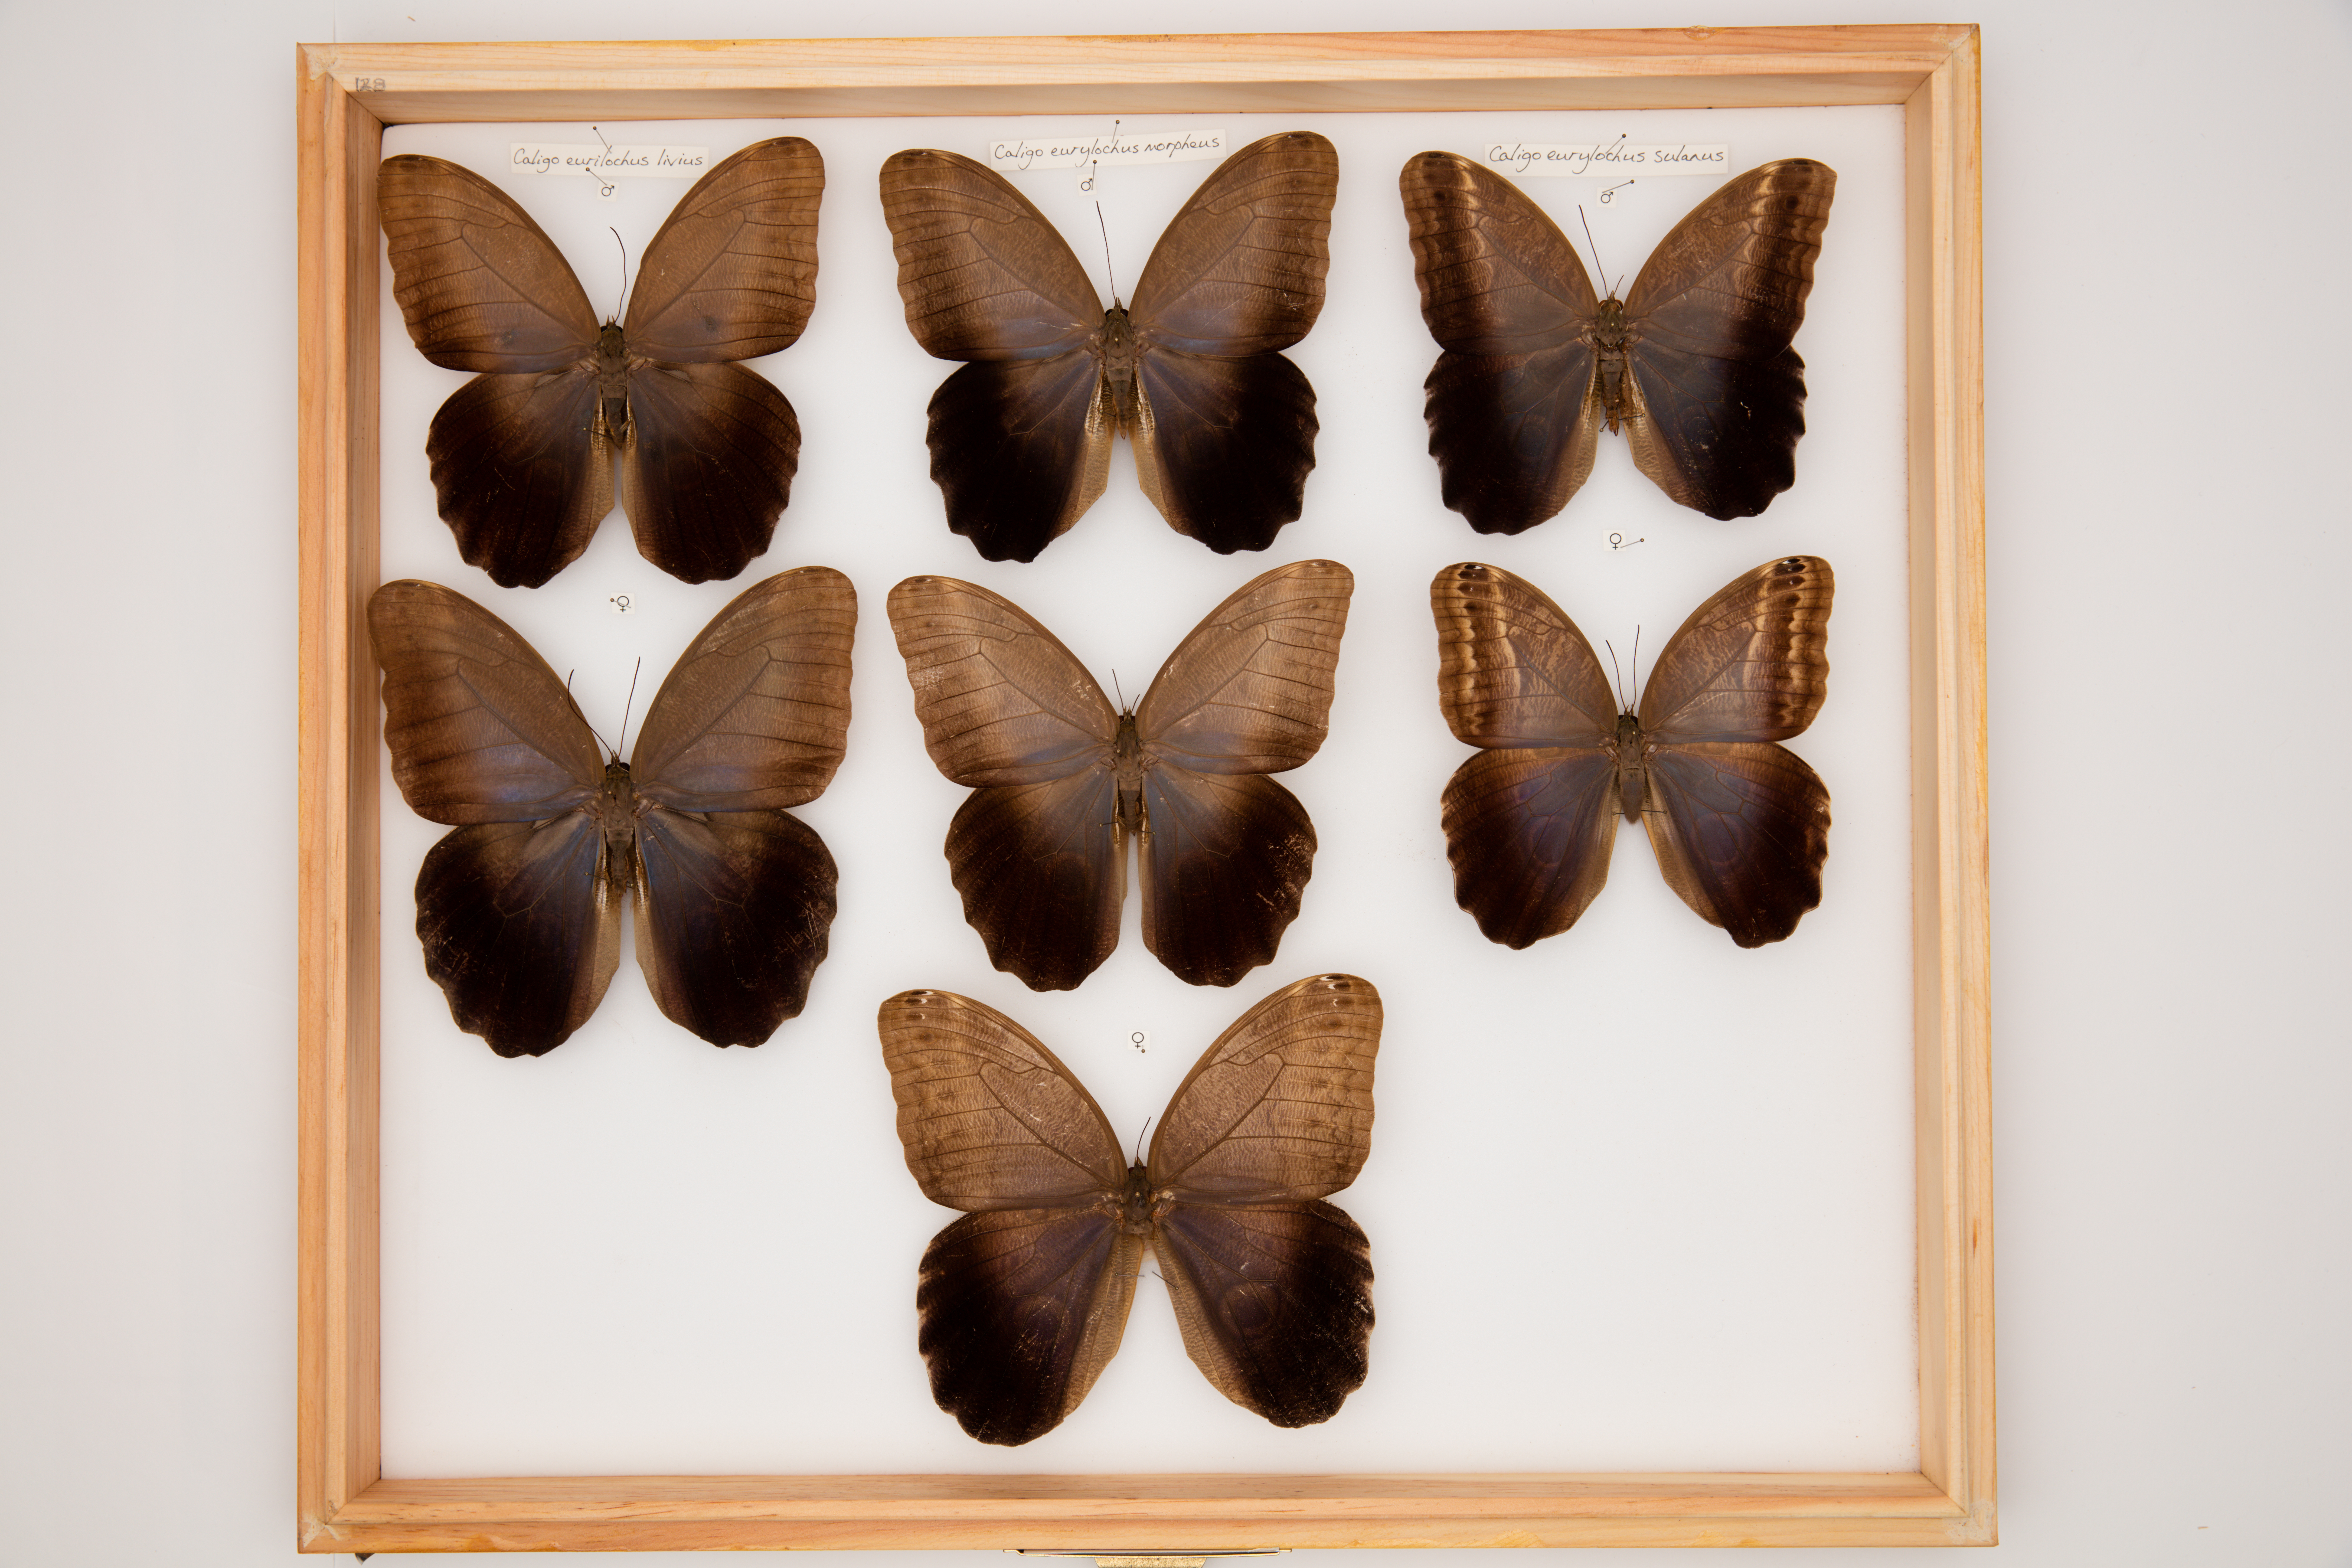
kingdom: Animalia
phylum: Arthropoda
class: Insecta
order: Lepidoptera
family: Nymphalidae
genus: Caligo
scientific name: Caligo eurilochus
